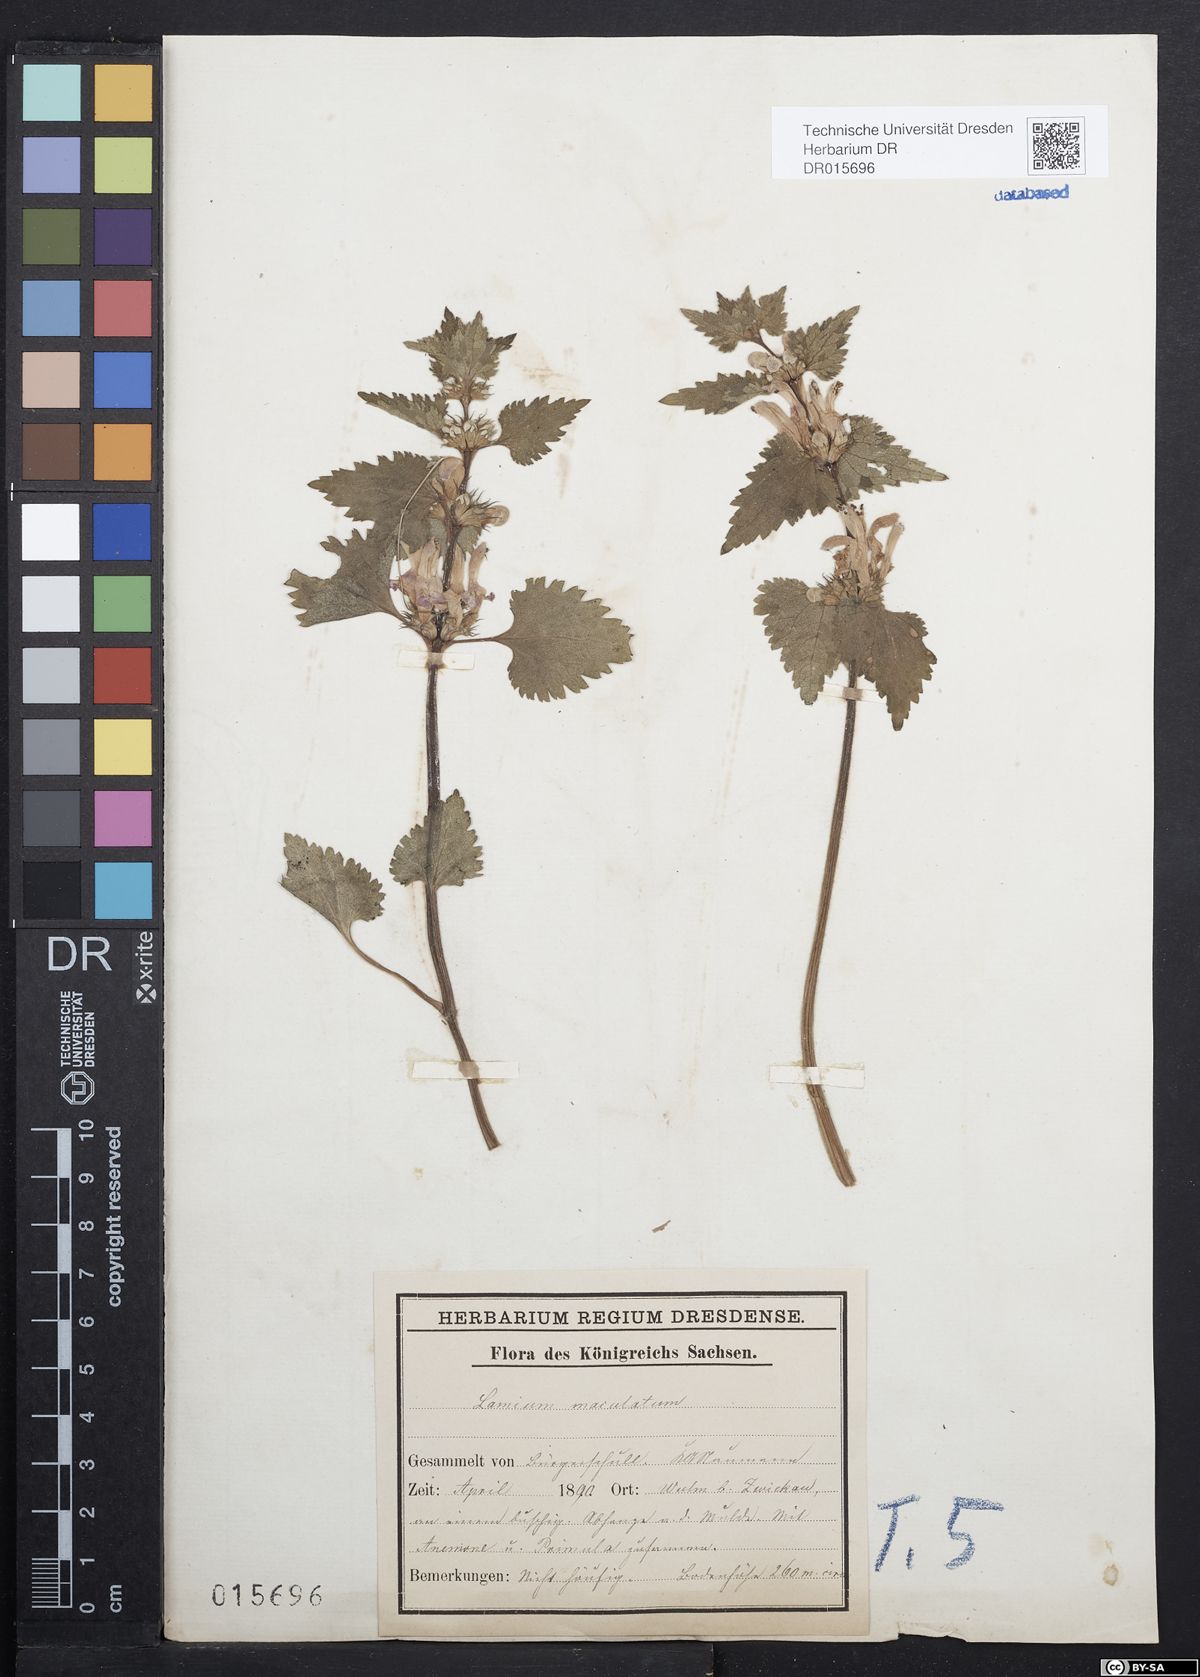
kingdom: Plantae
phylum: Tracheophyta
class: Magnoliopsida
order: Lamiales
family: Lamiaceae
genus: Lamium
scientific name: Lamium maculatum
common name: Spotted dead-nettle
